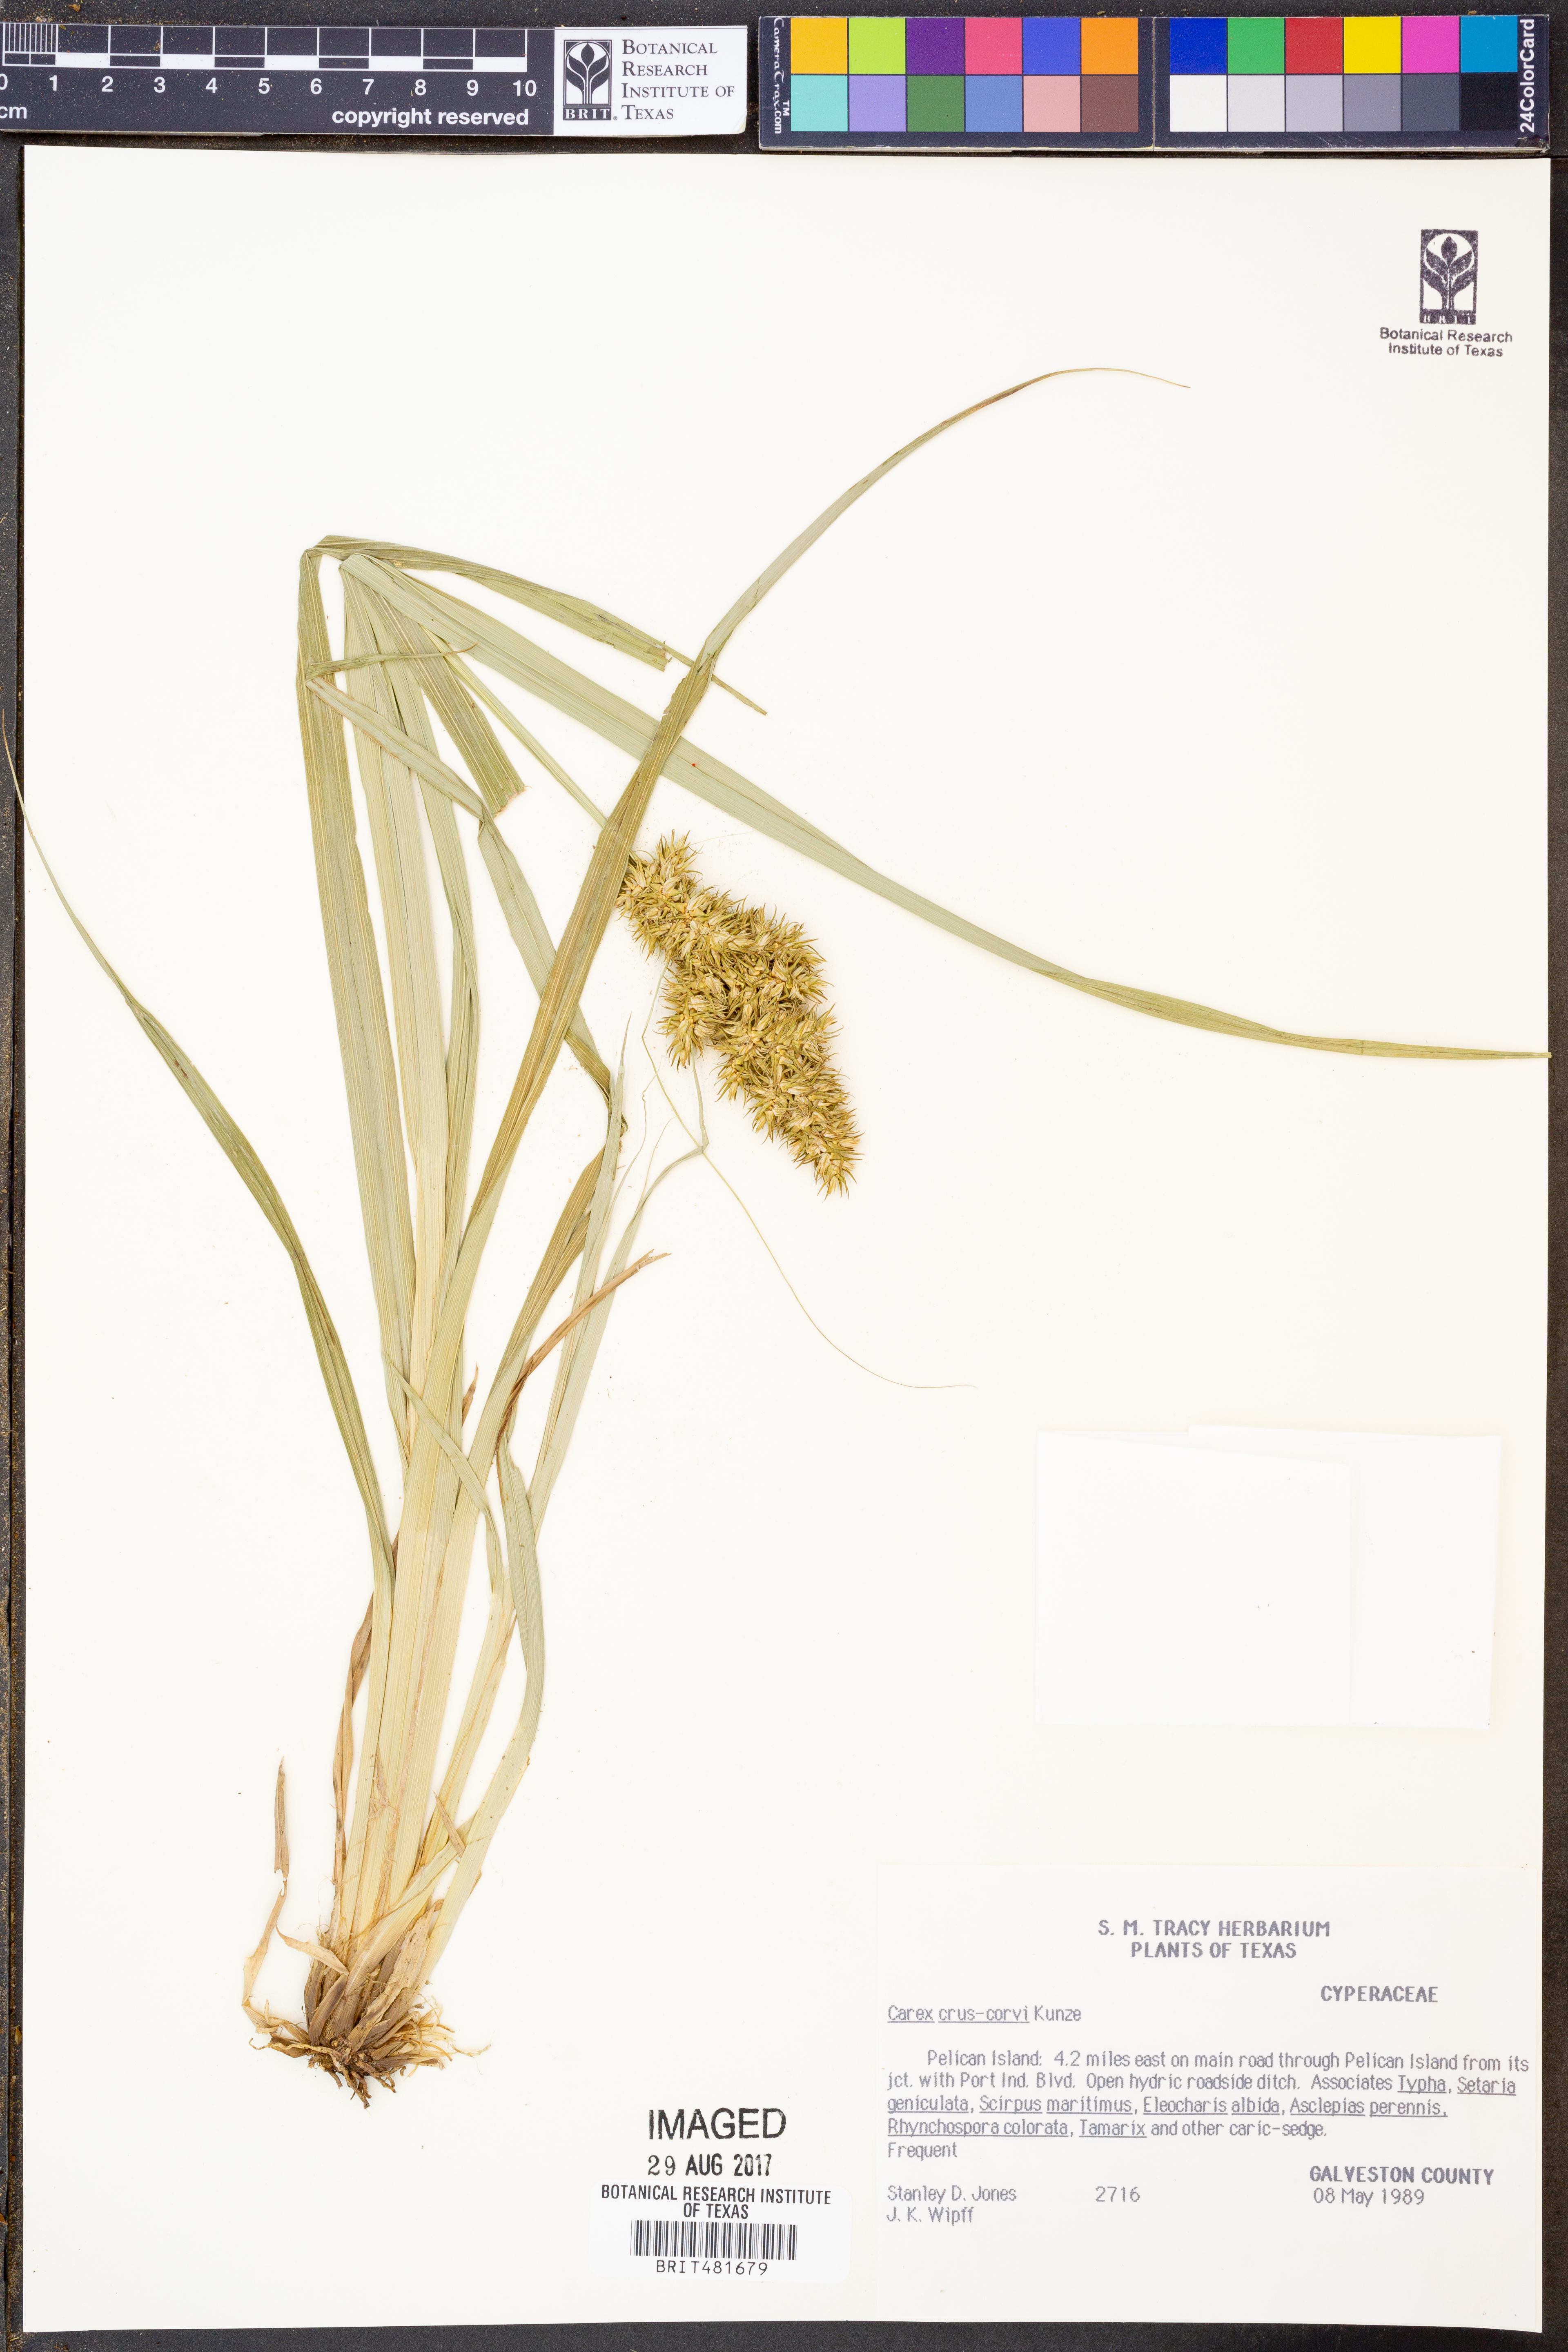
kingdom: Plantae
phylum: Tracheophyta
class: Liliopsida
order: Poales
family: Cyperaceae
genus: Carex
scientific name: Carex crus-corvi
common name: Crow-spur sedge
